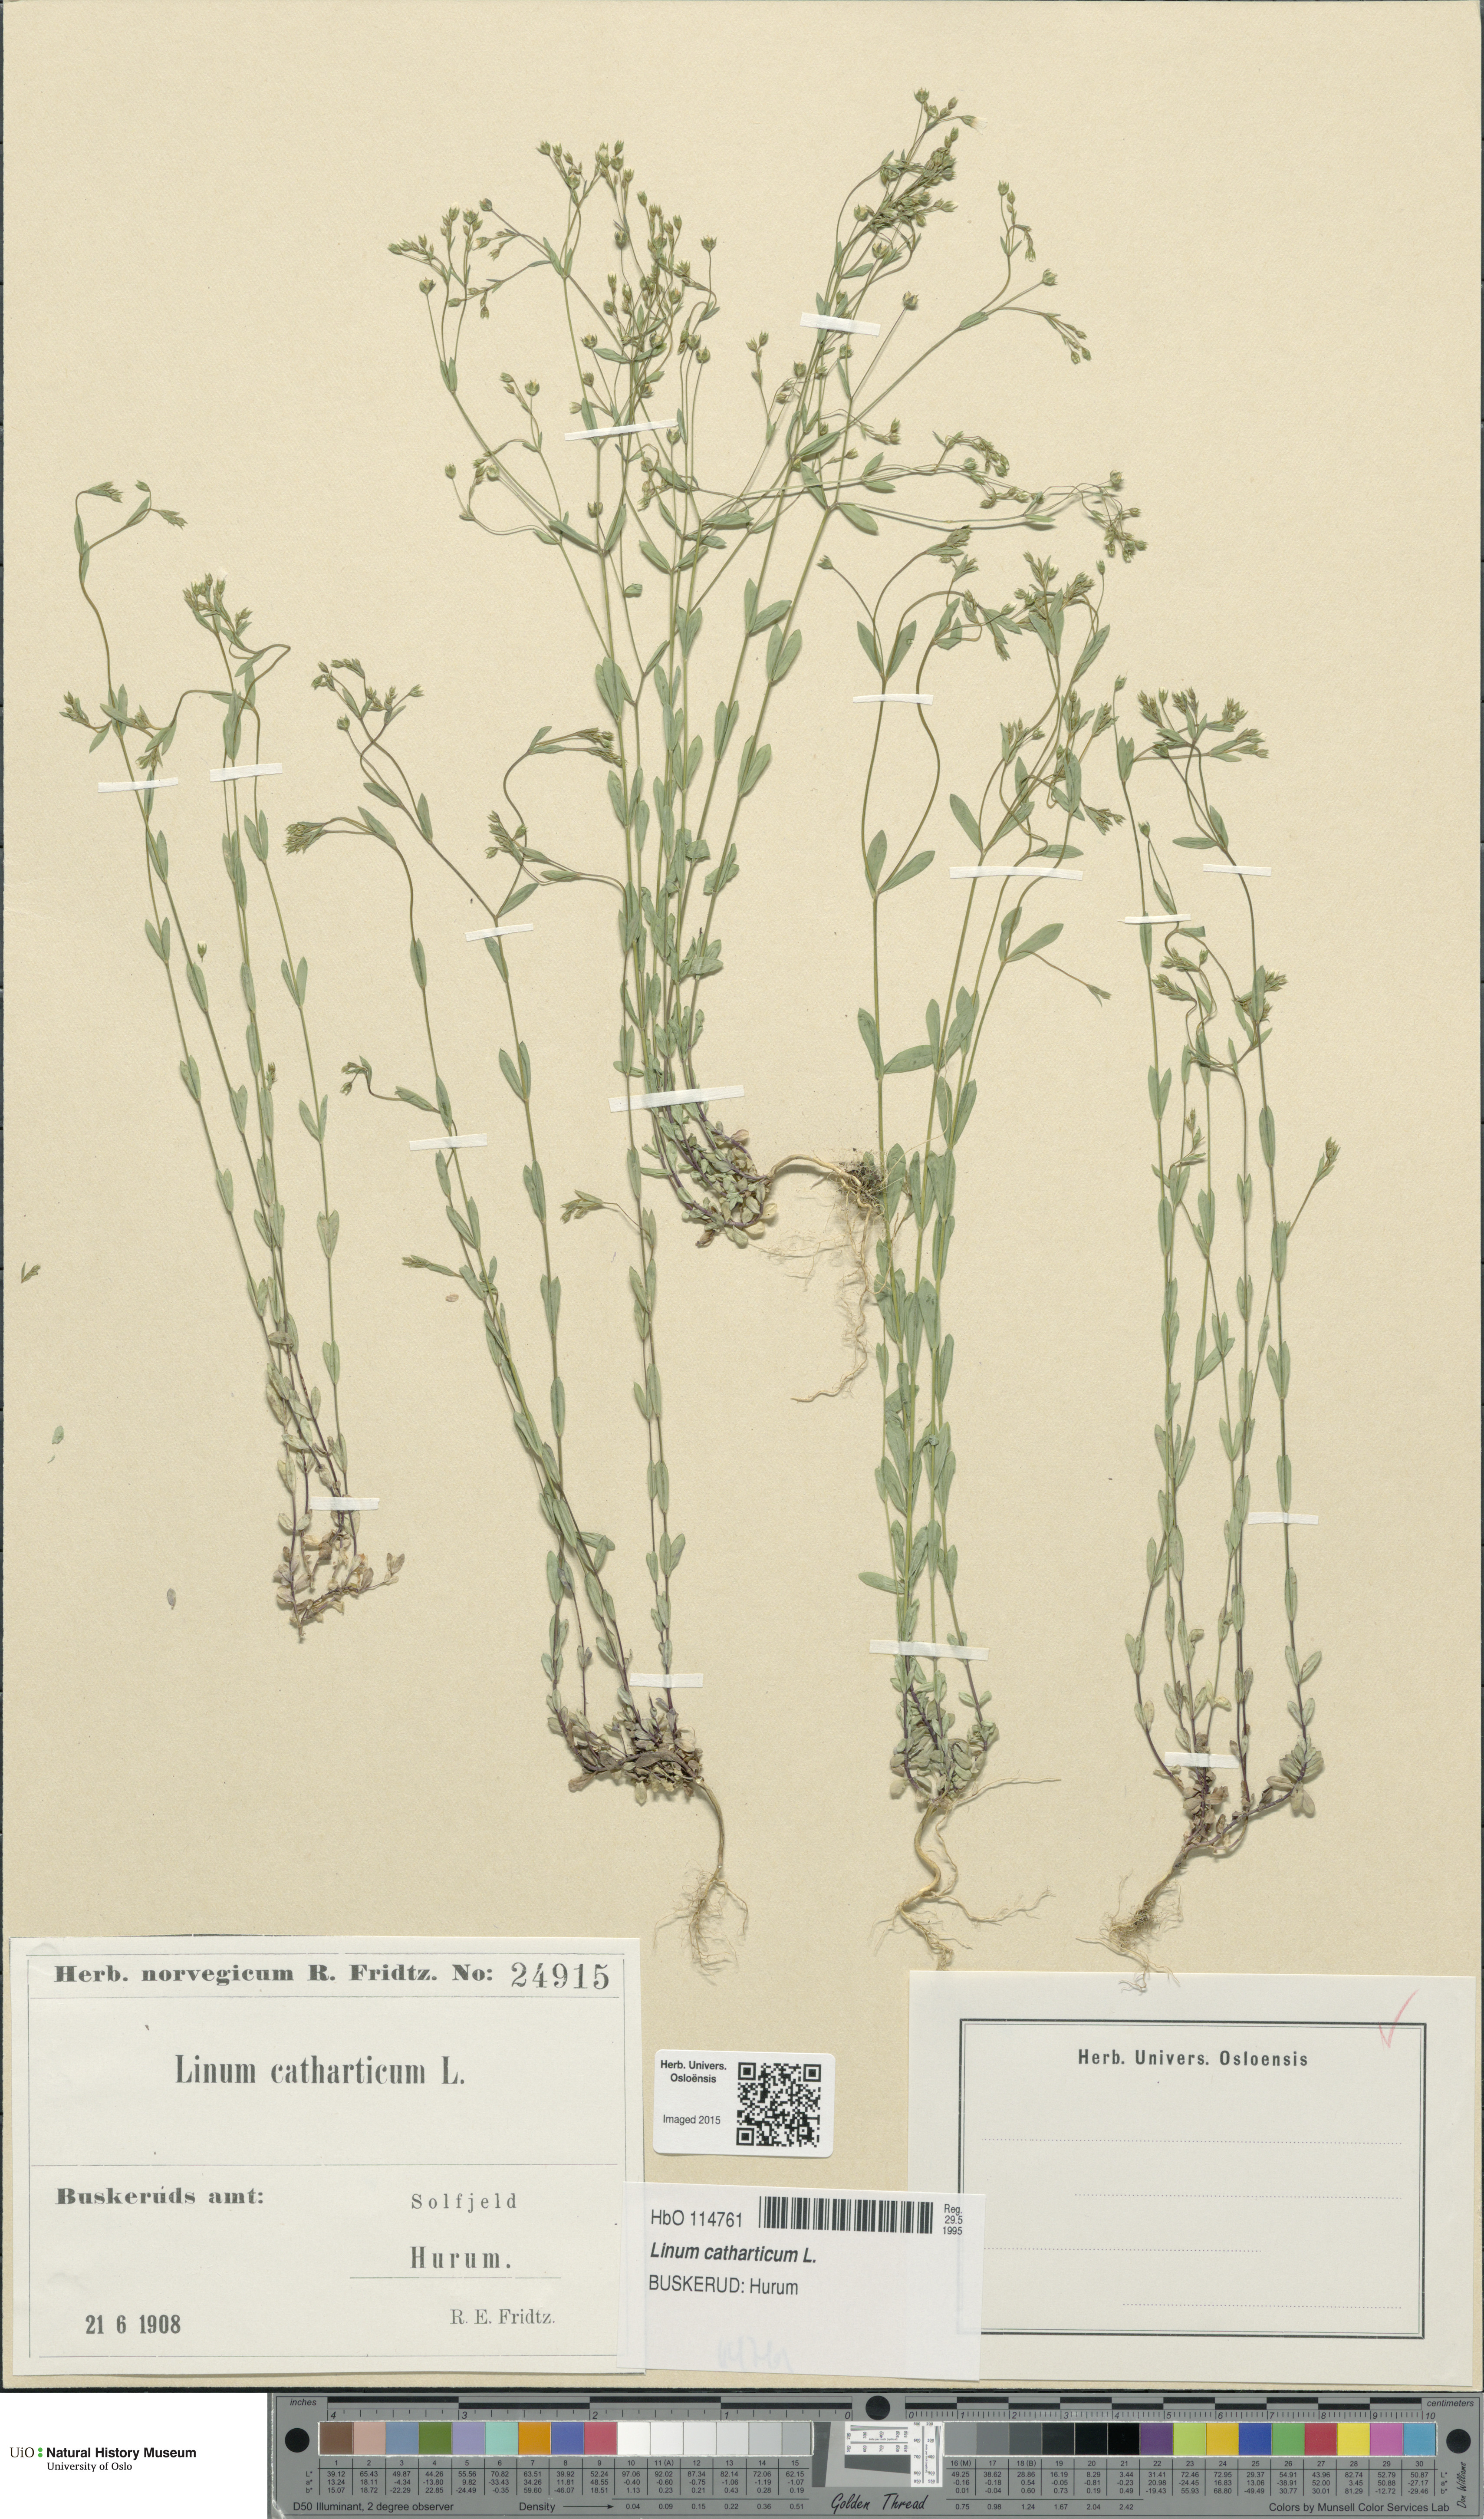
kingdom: Plantae
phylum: Tracheophyta
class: Magnoliopsida
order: Malpighiales
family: Linaceae
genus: Linum
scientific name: Linum catharticum
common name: Fairy flax
